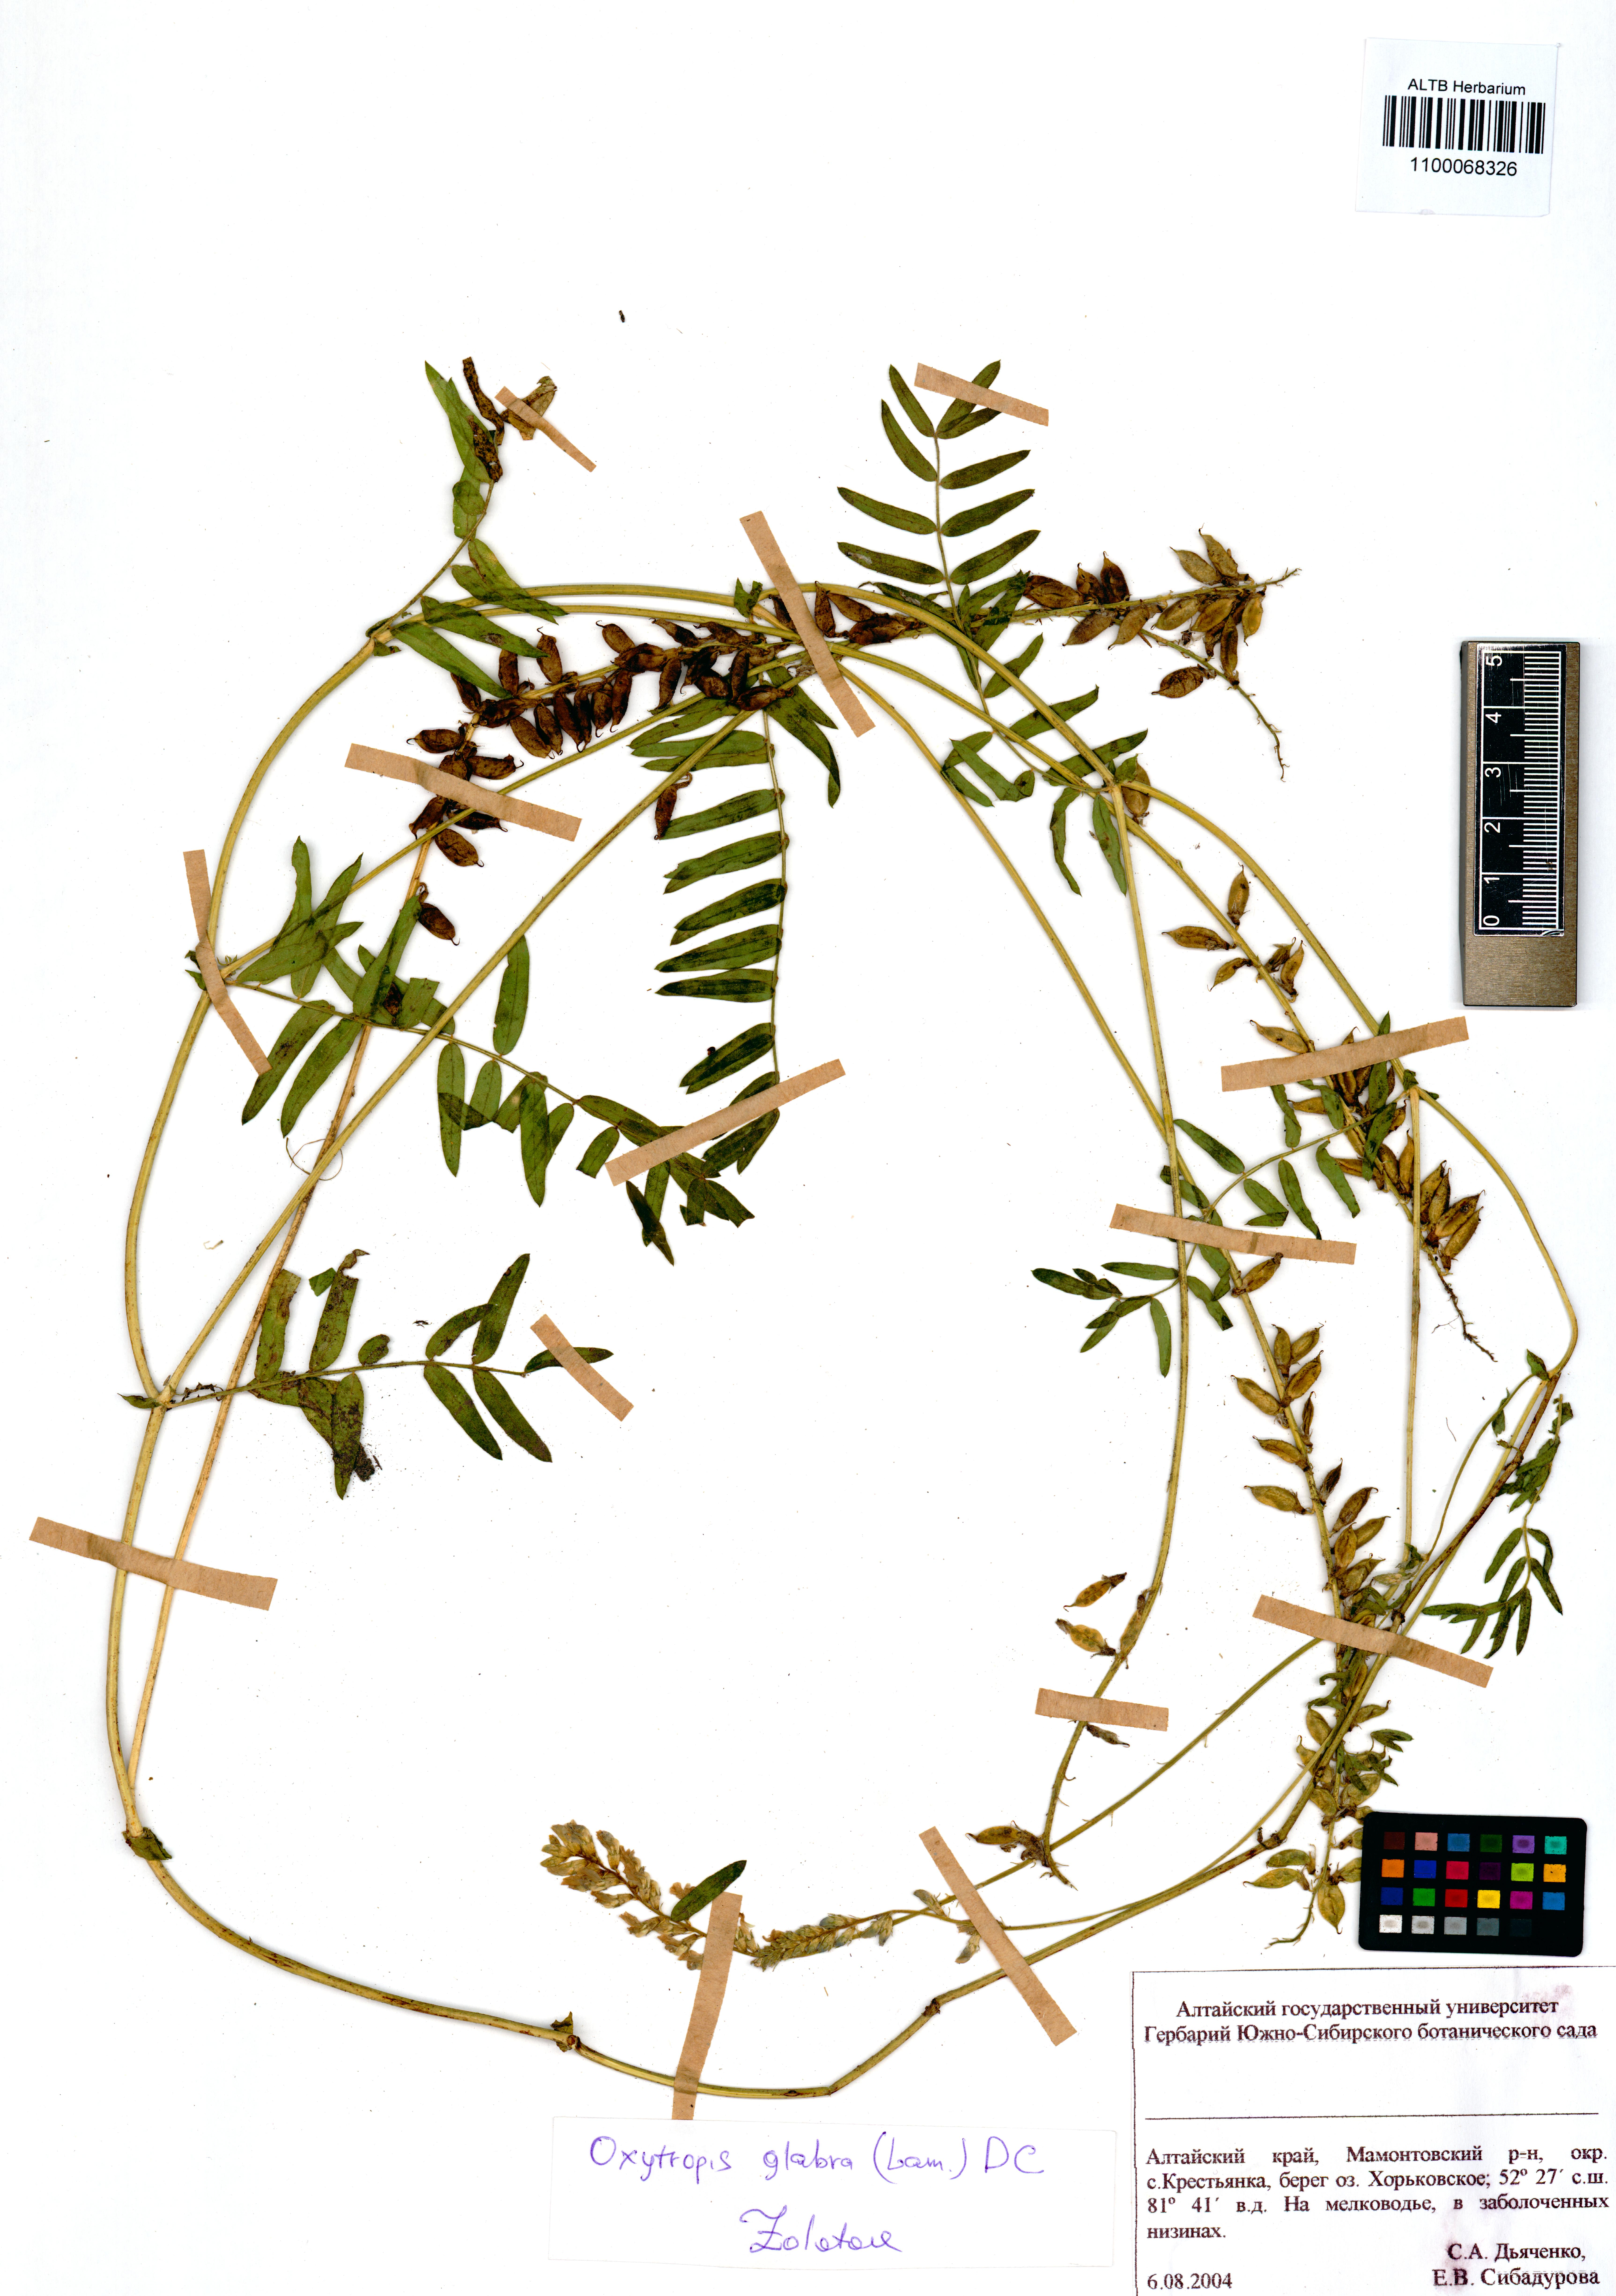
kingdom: Plantae
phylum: Tracheophyta
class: Magnoliopsida
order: Fabales
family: Fabaceae
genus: Oxytropis
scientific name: Oxytropis glabra
